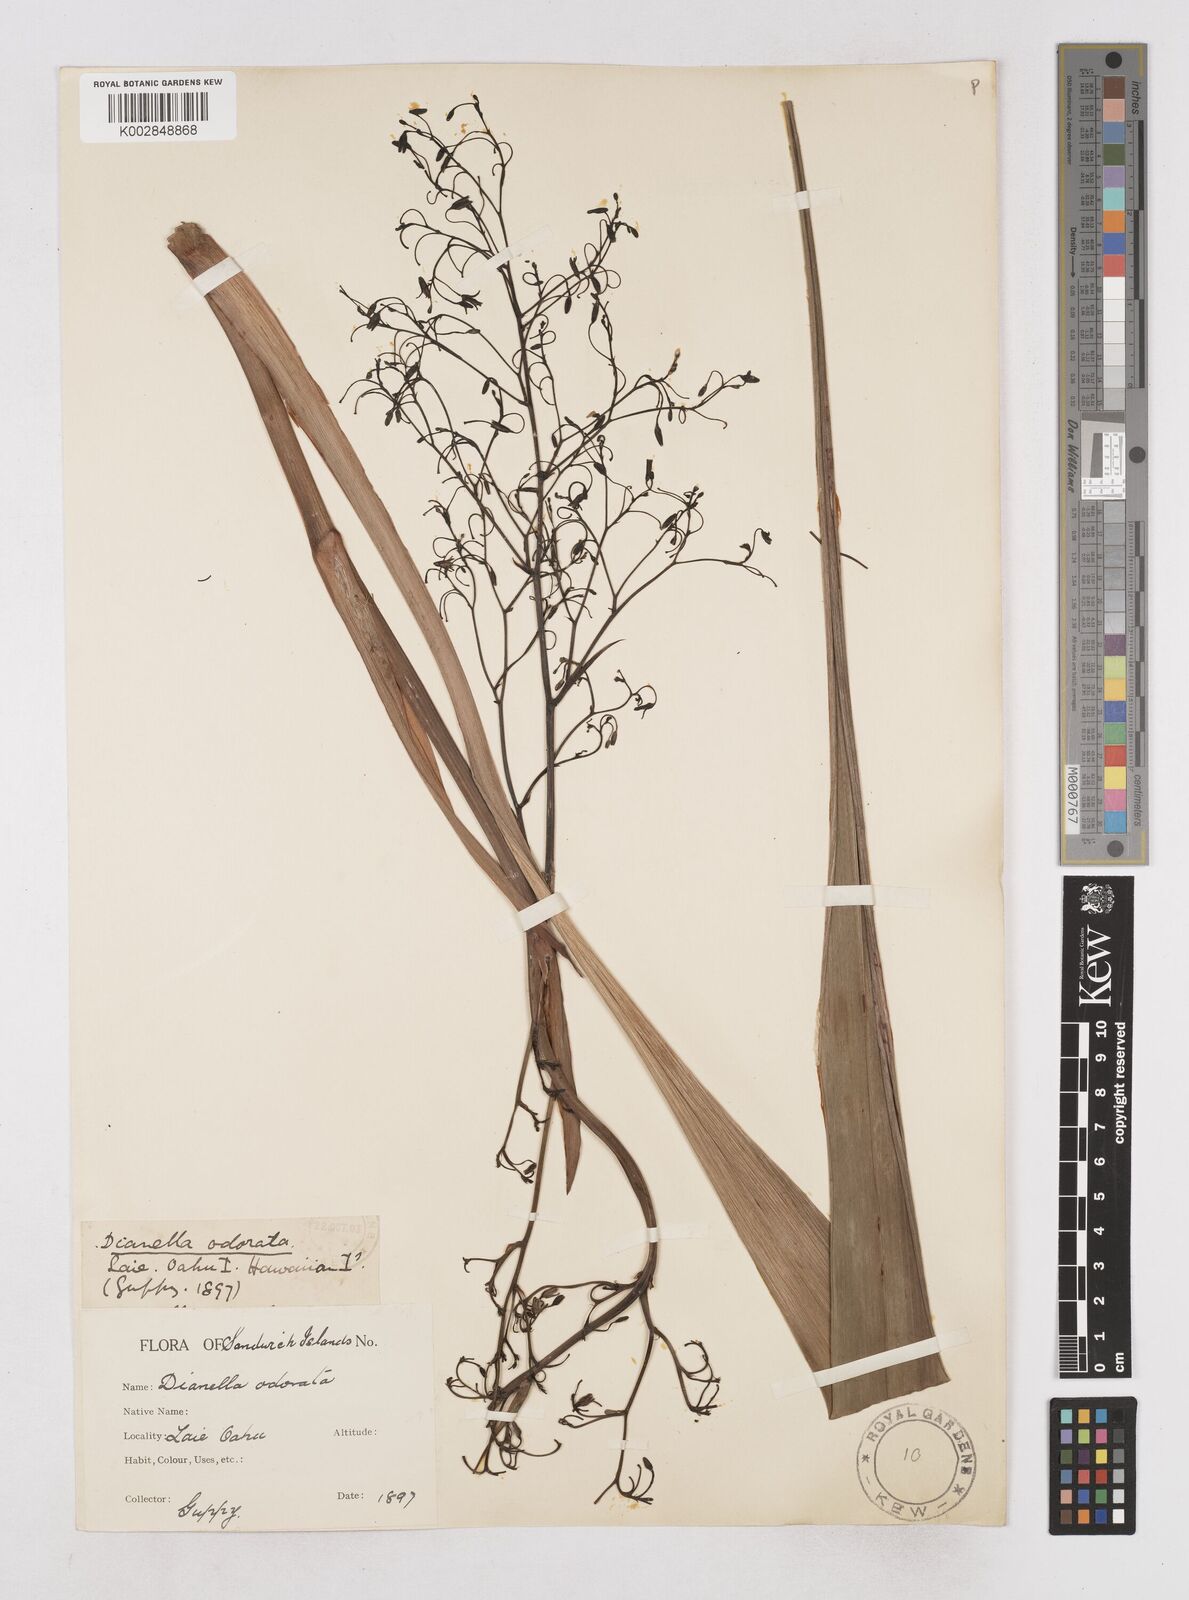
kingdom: Plantae
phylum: Tracheophyta
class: Liliopsida
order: Asparagales
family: Asphodelaceae
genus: Dianella
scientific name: Dianella odorata
